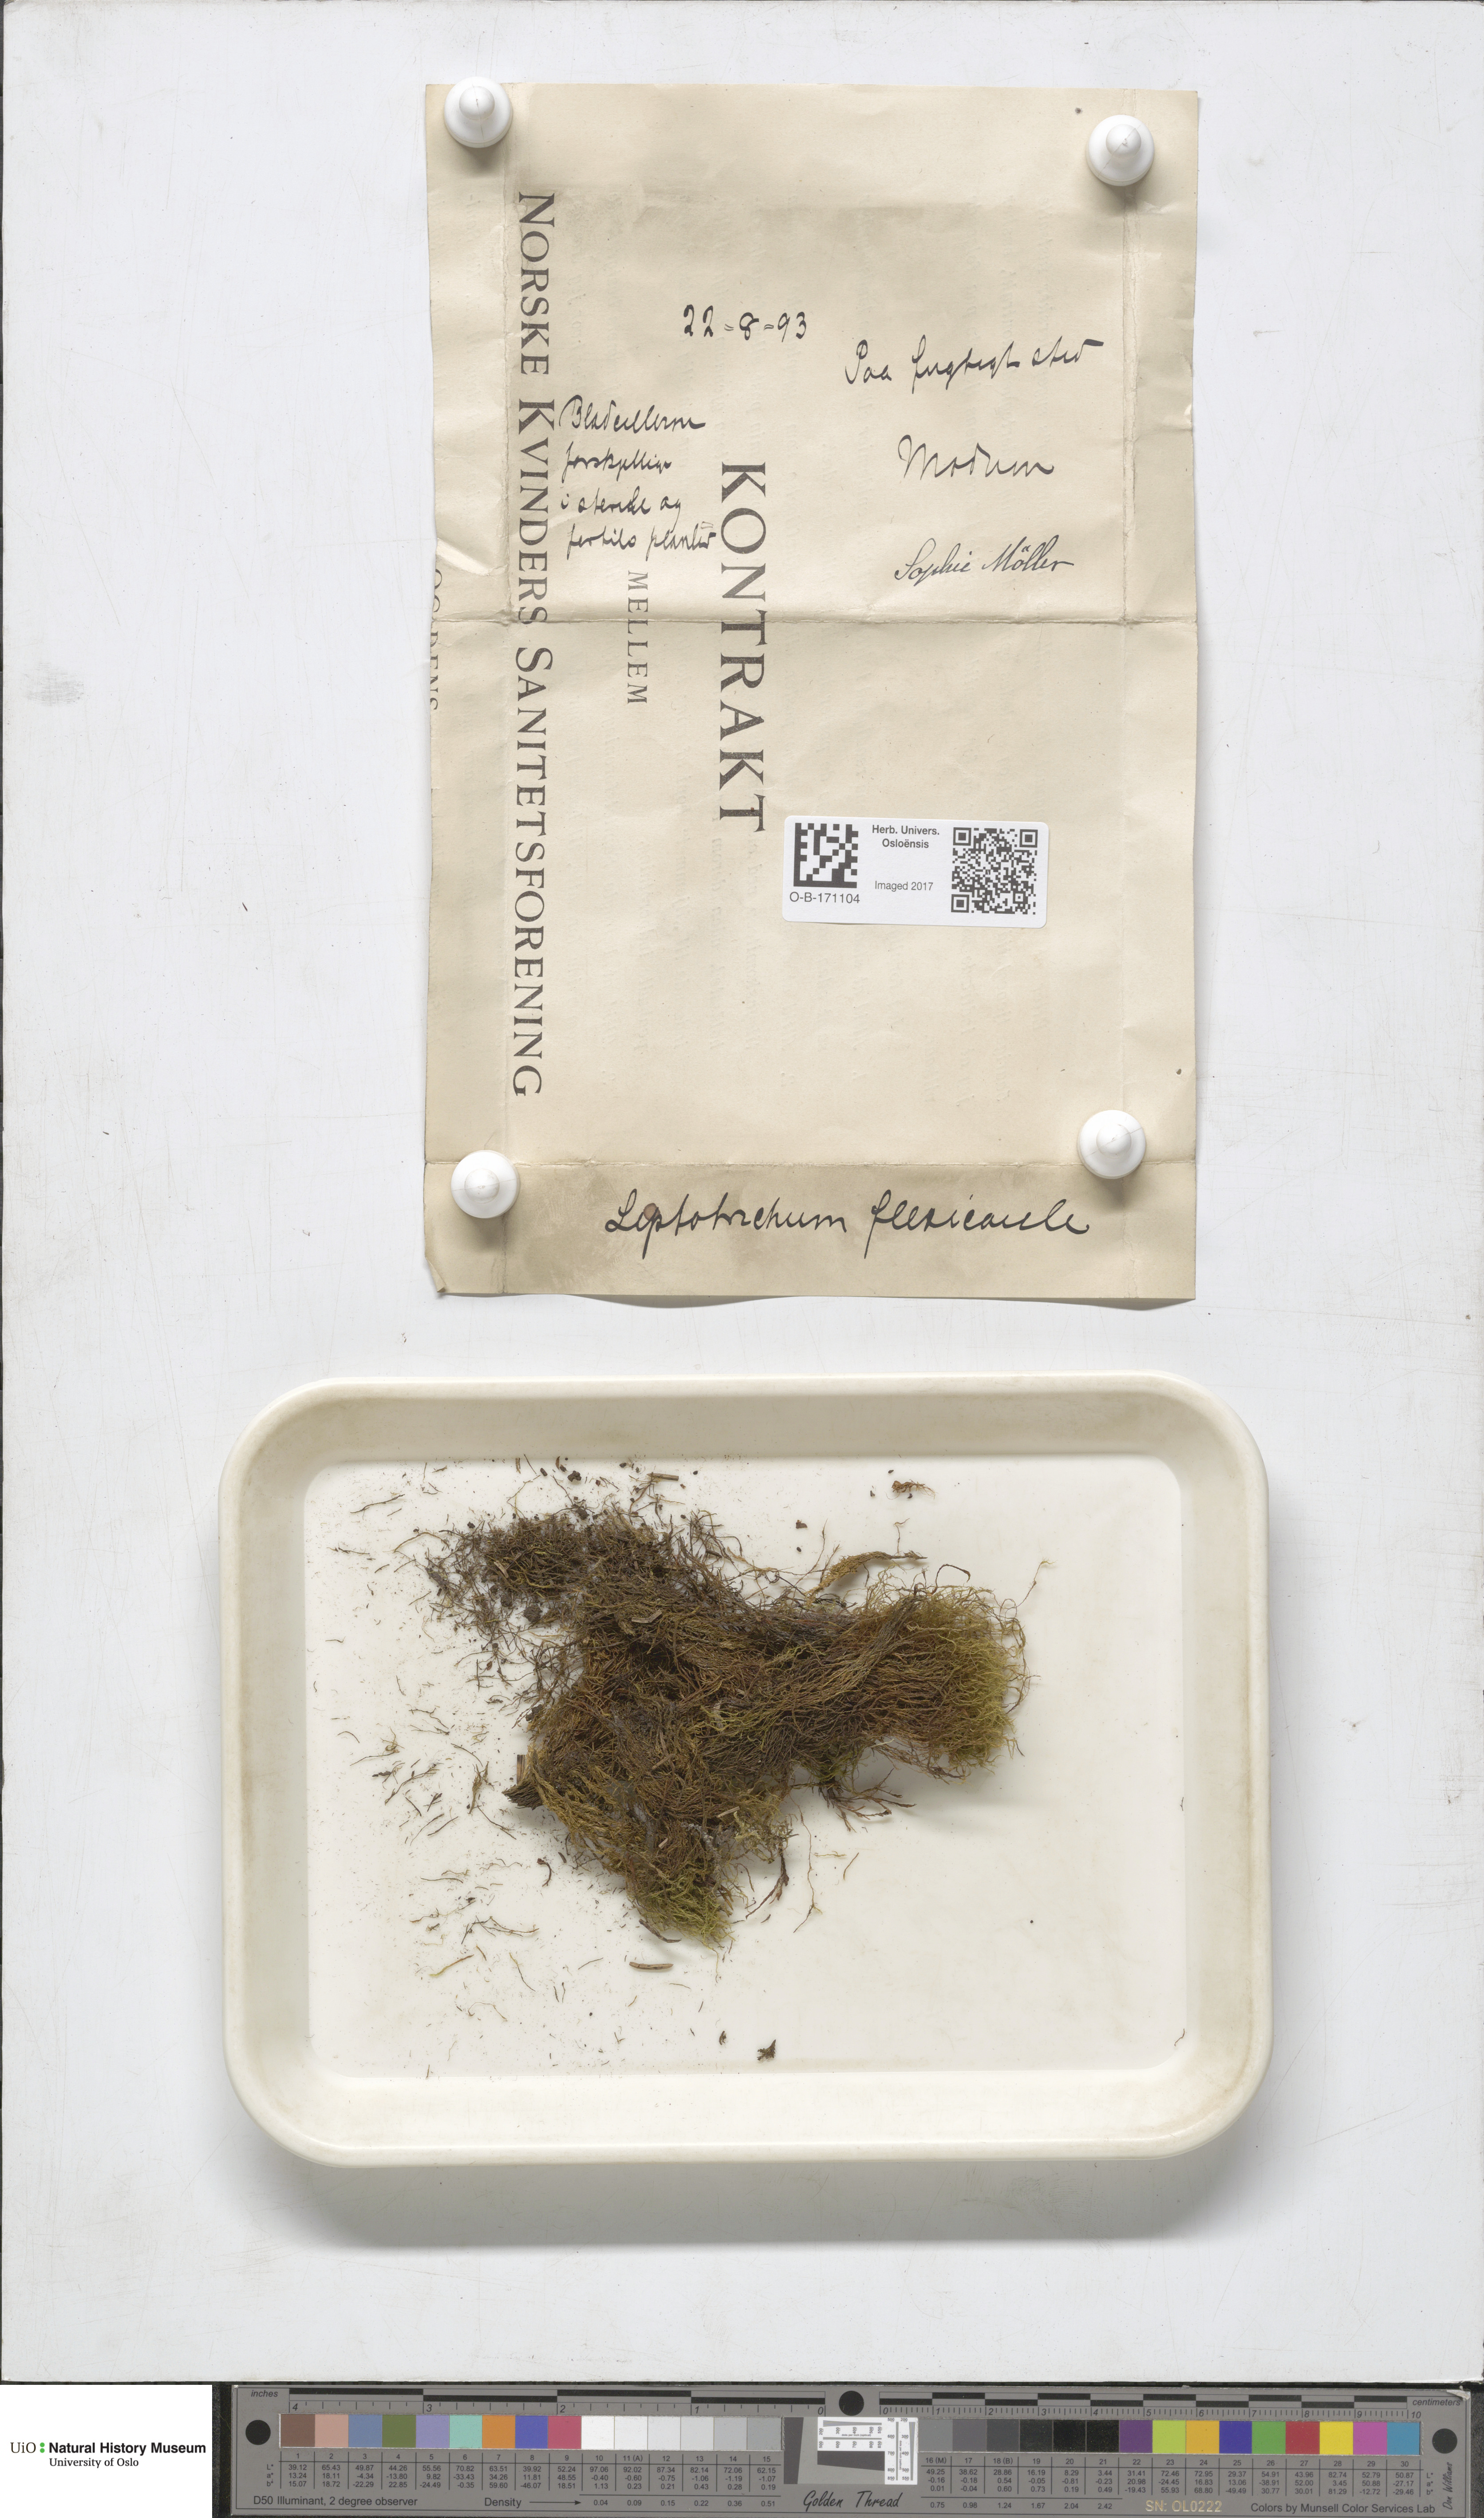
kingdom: Plantae
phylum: Bryophyta
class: Bryopsida
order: Scouleriales
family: Flexitrichaceae
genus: Flexitrichum
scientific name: Flexitrichum flexicaule
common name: Bendy ditrichum
